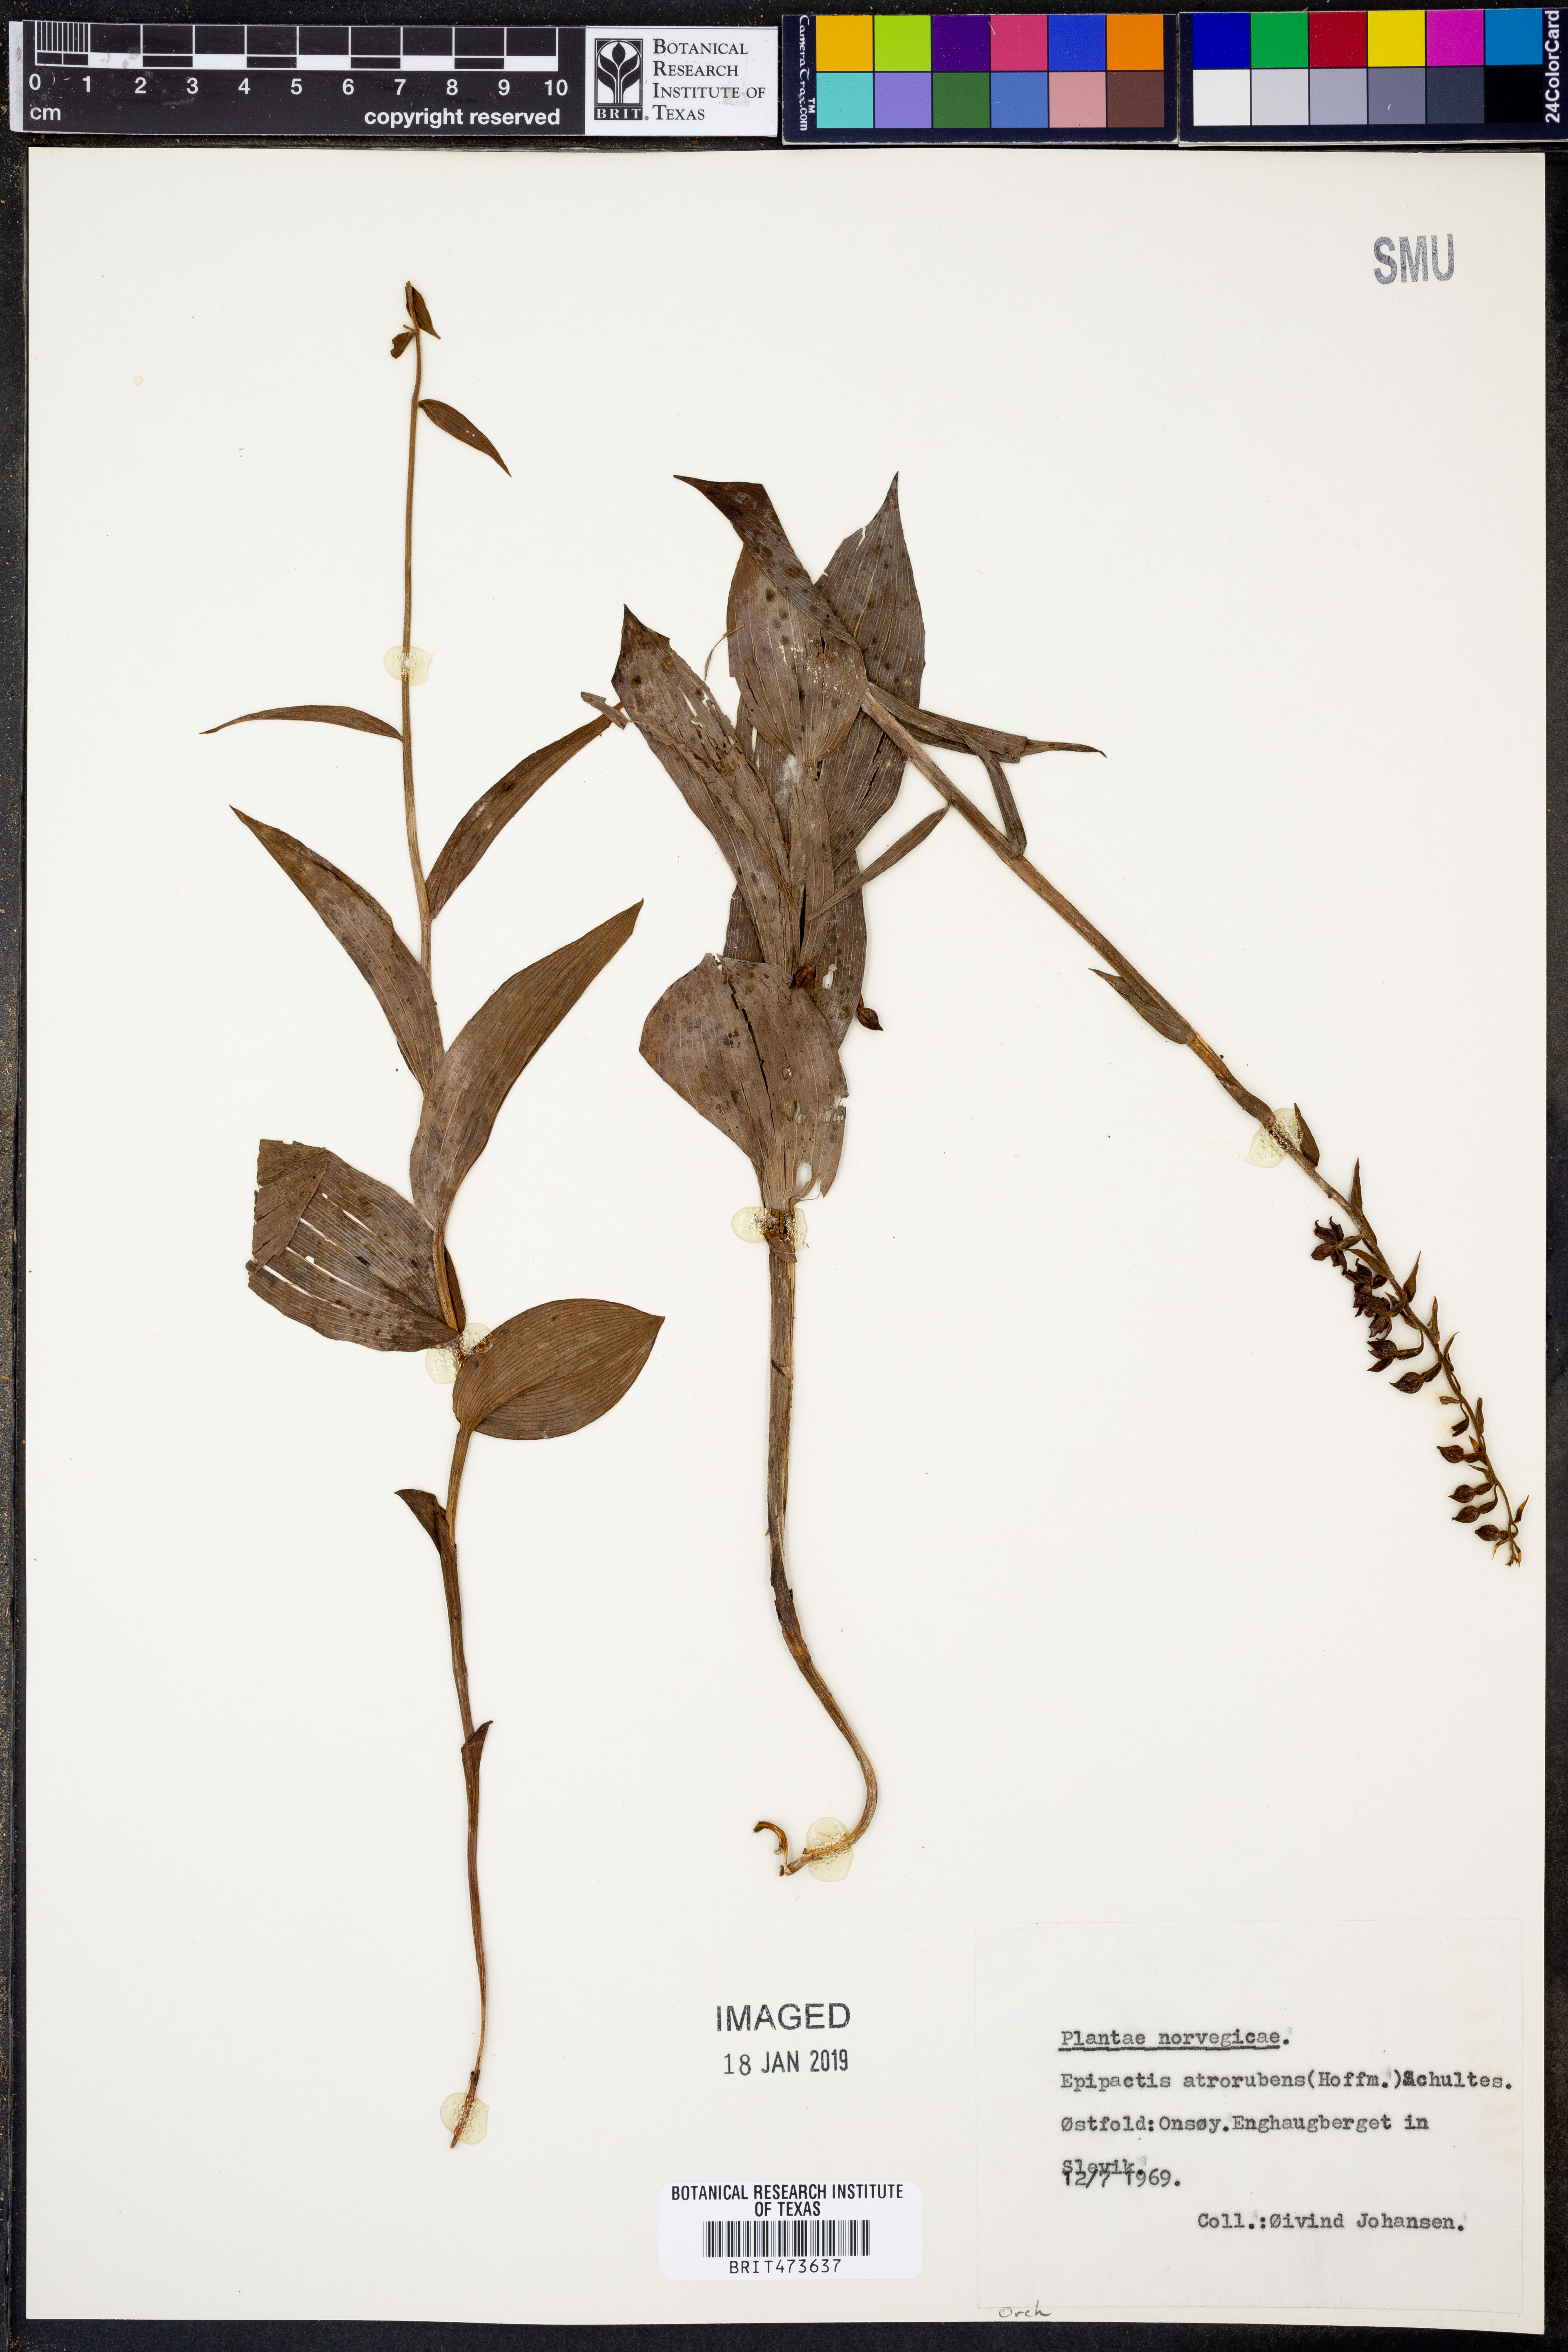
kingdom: Plantae
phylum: Tracheophyta
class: Liliopsida
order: Asparagales
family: Orchidaceae
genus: Epipactis
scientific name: Epipactis atrorubens
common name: Dark-red helleborine
